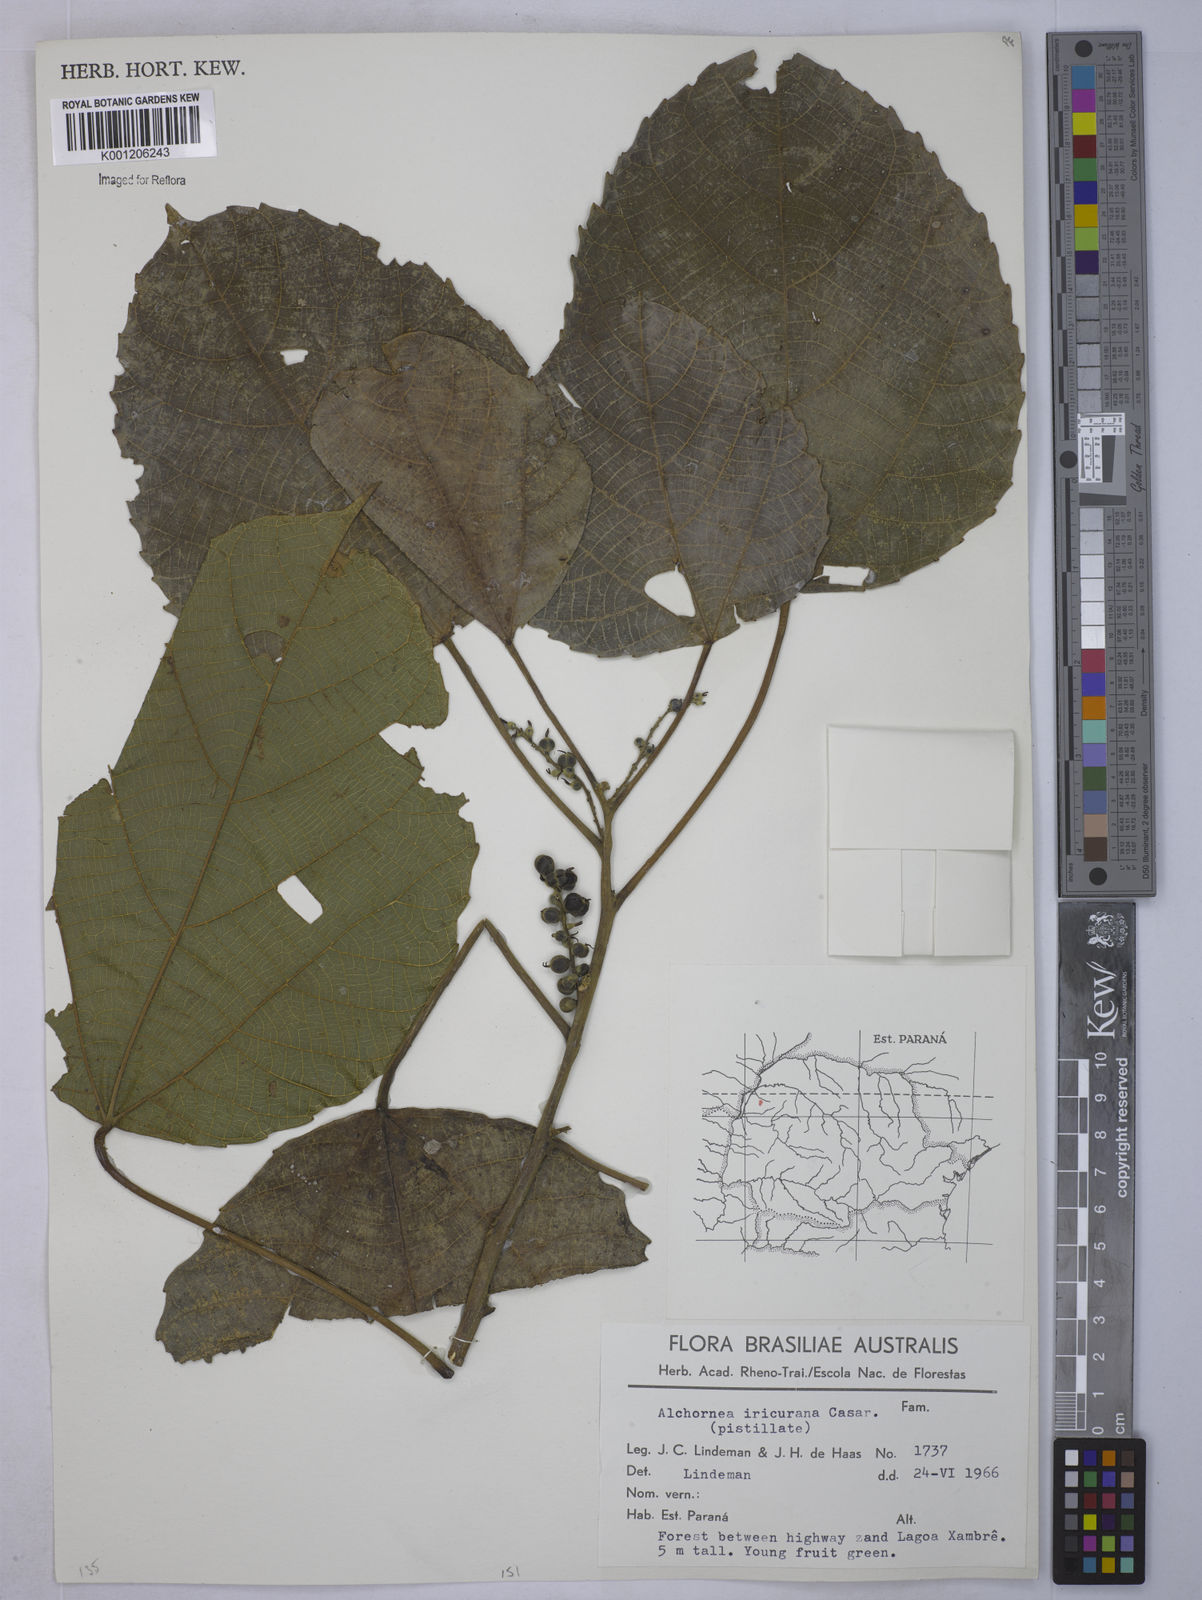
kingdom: Plantae
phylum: Tracheophyta
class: Magnoliopsida
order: Malpighiales
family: Euphorbiaceae
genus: Alchornea
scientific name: Alchornea glandulosa
